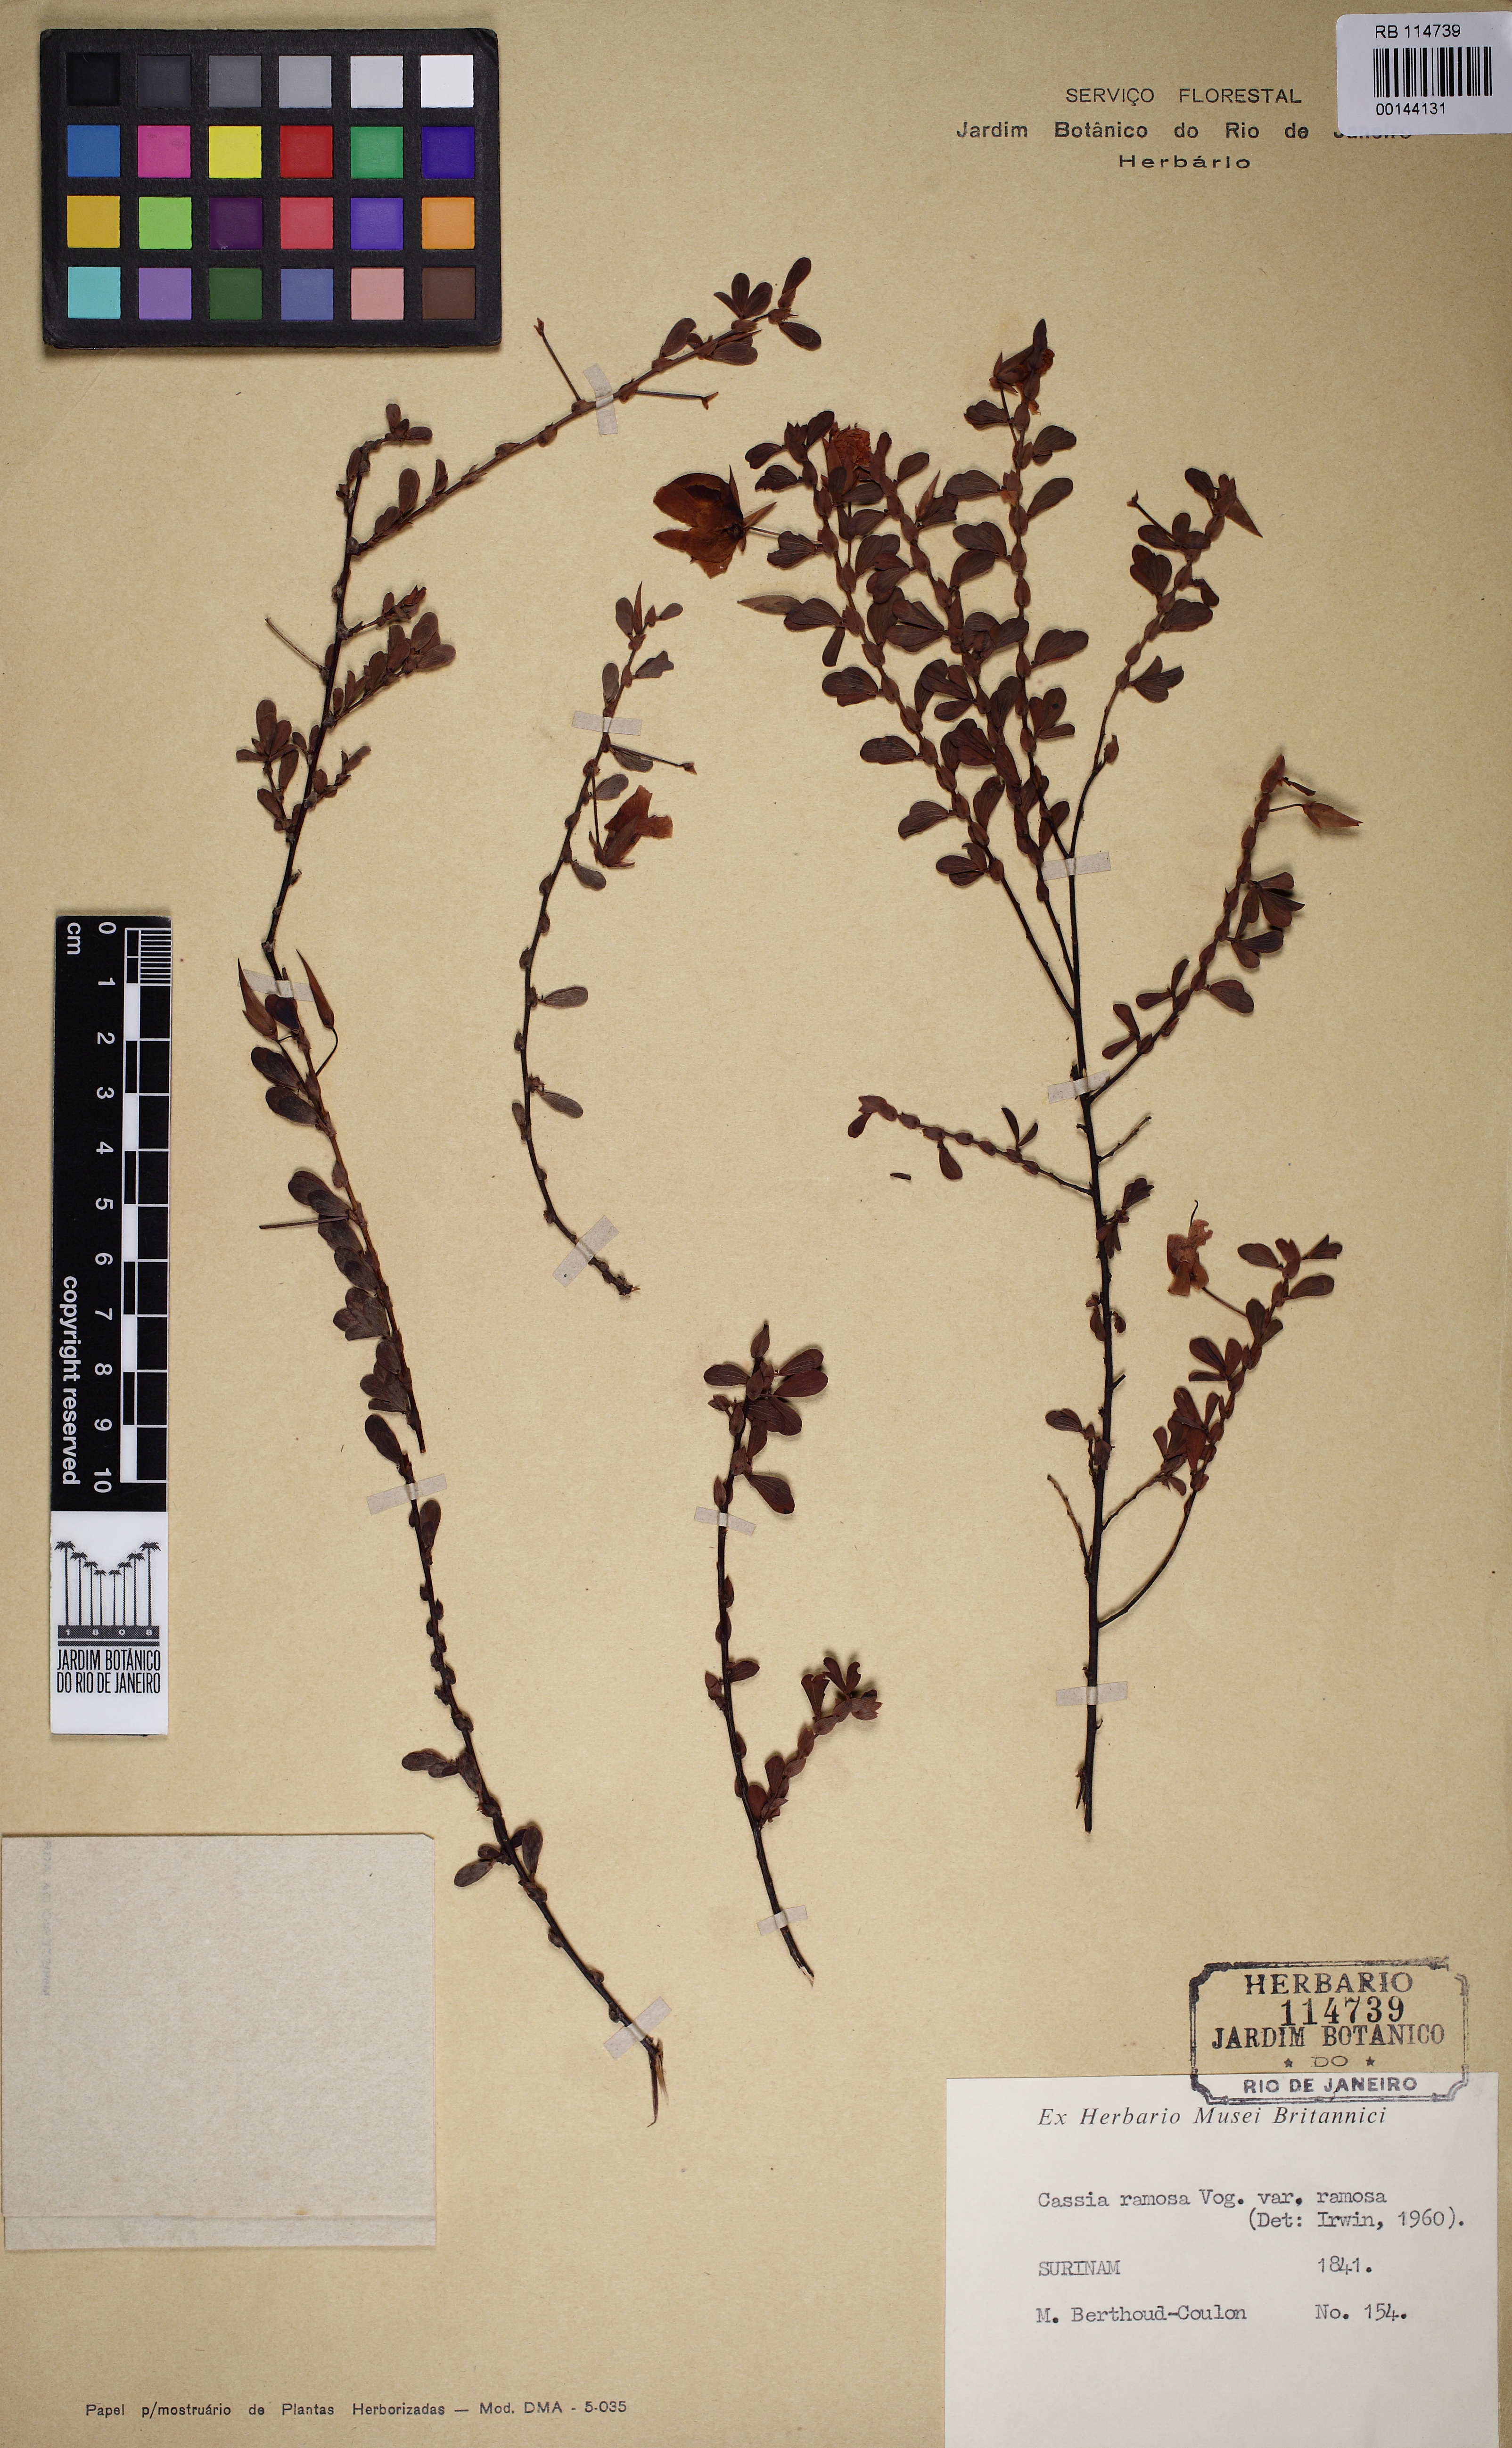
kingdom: Plantae
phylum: Tracheophyta
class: Magnoliopsida
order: Fabales
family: Fabaceae
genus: Chamaecrista
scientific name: Chamaecrista ramosa
